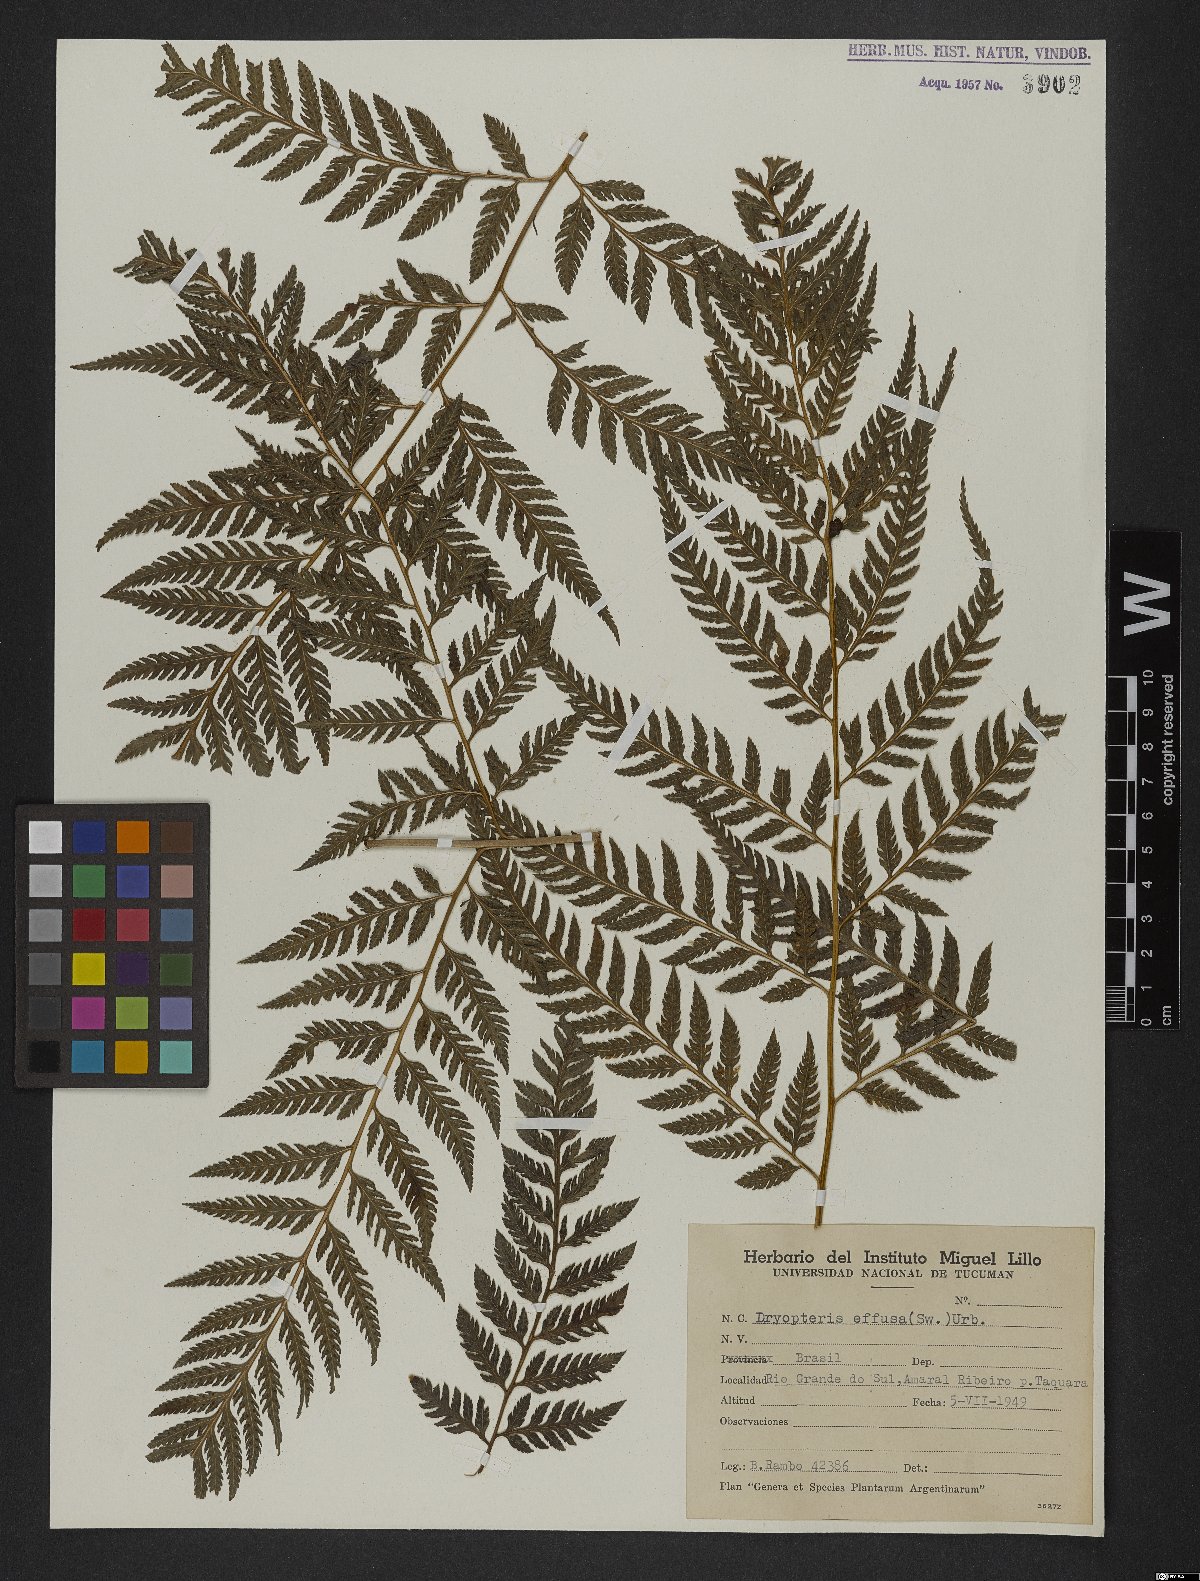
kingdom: Plantae
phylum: Tracheophyta
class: Polypodiopsida
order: Polypodiales
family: Dryopteridaceae
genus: Parapolystichum
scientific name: Parapolystichum effusum
